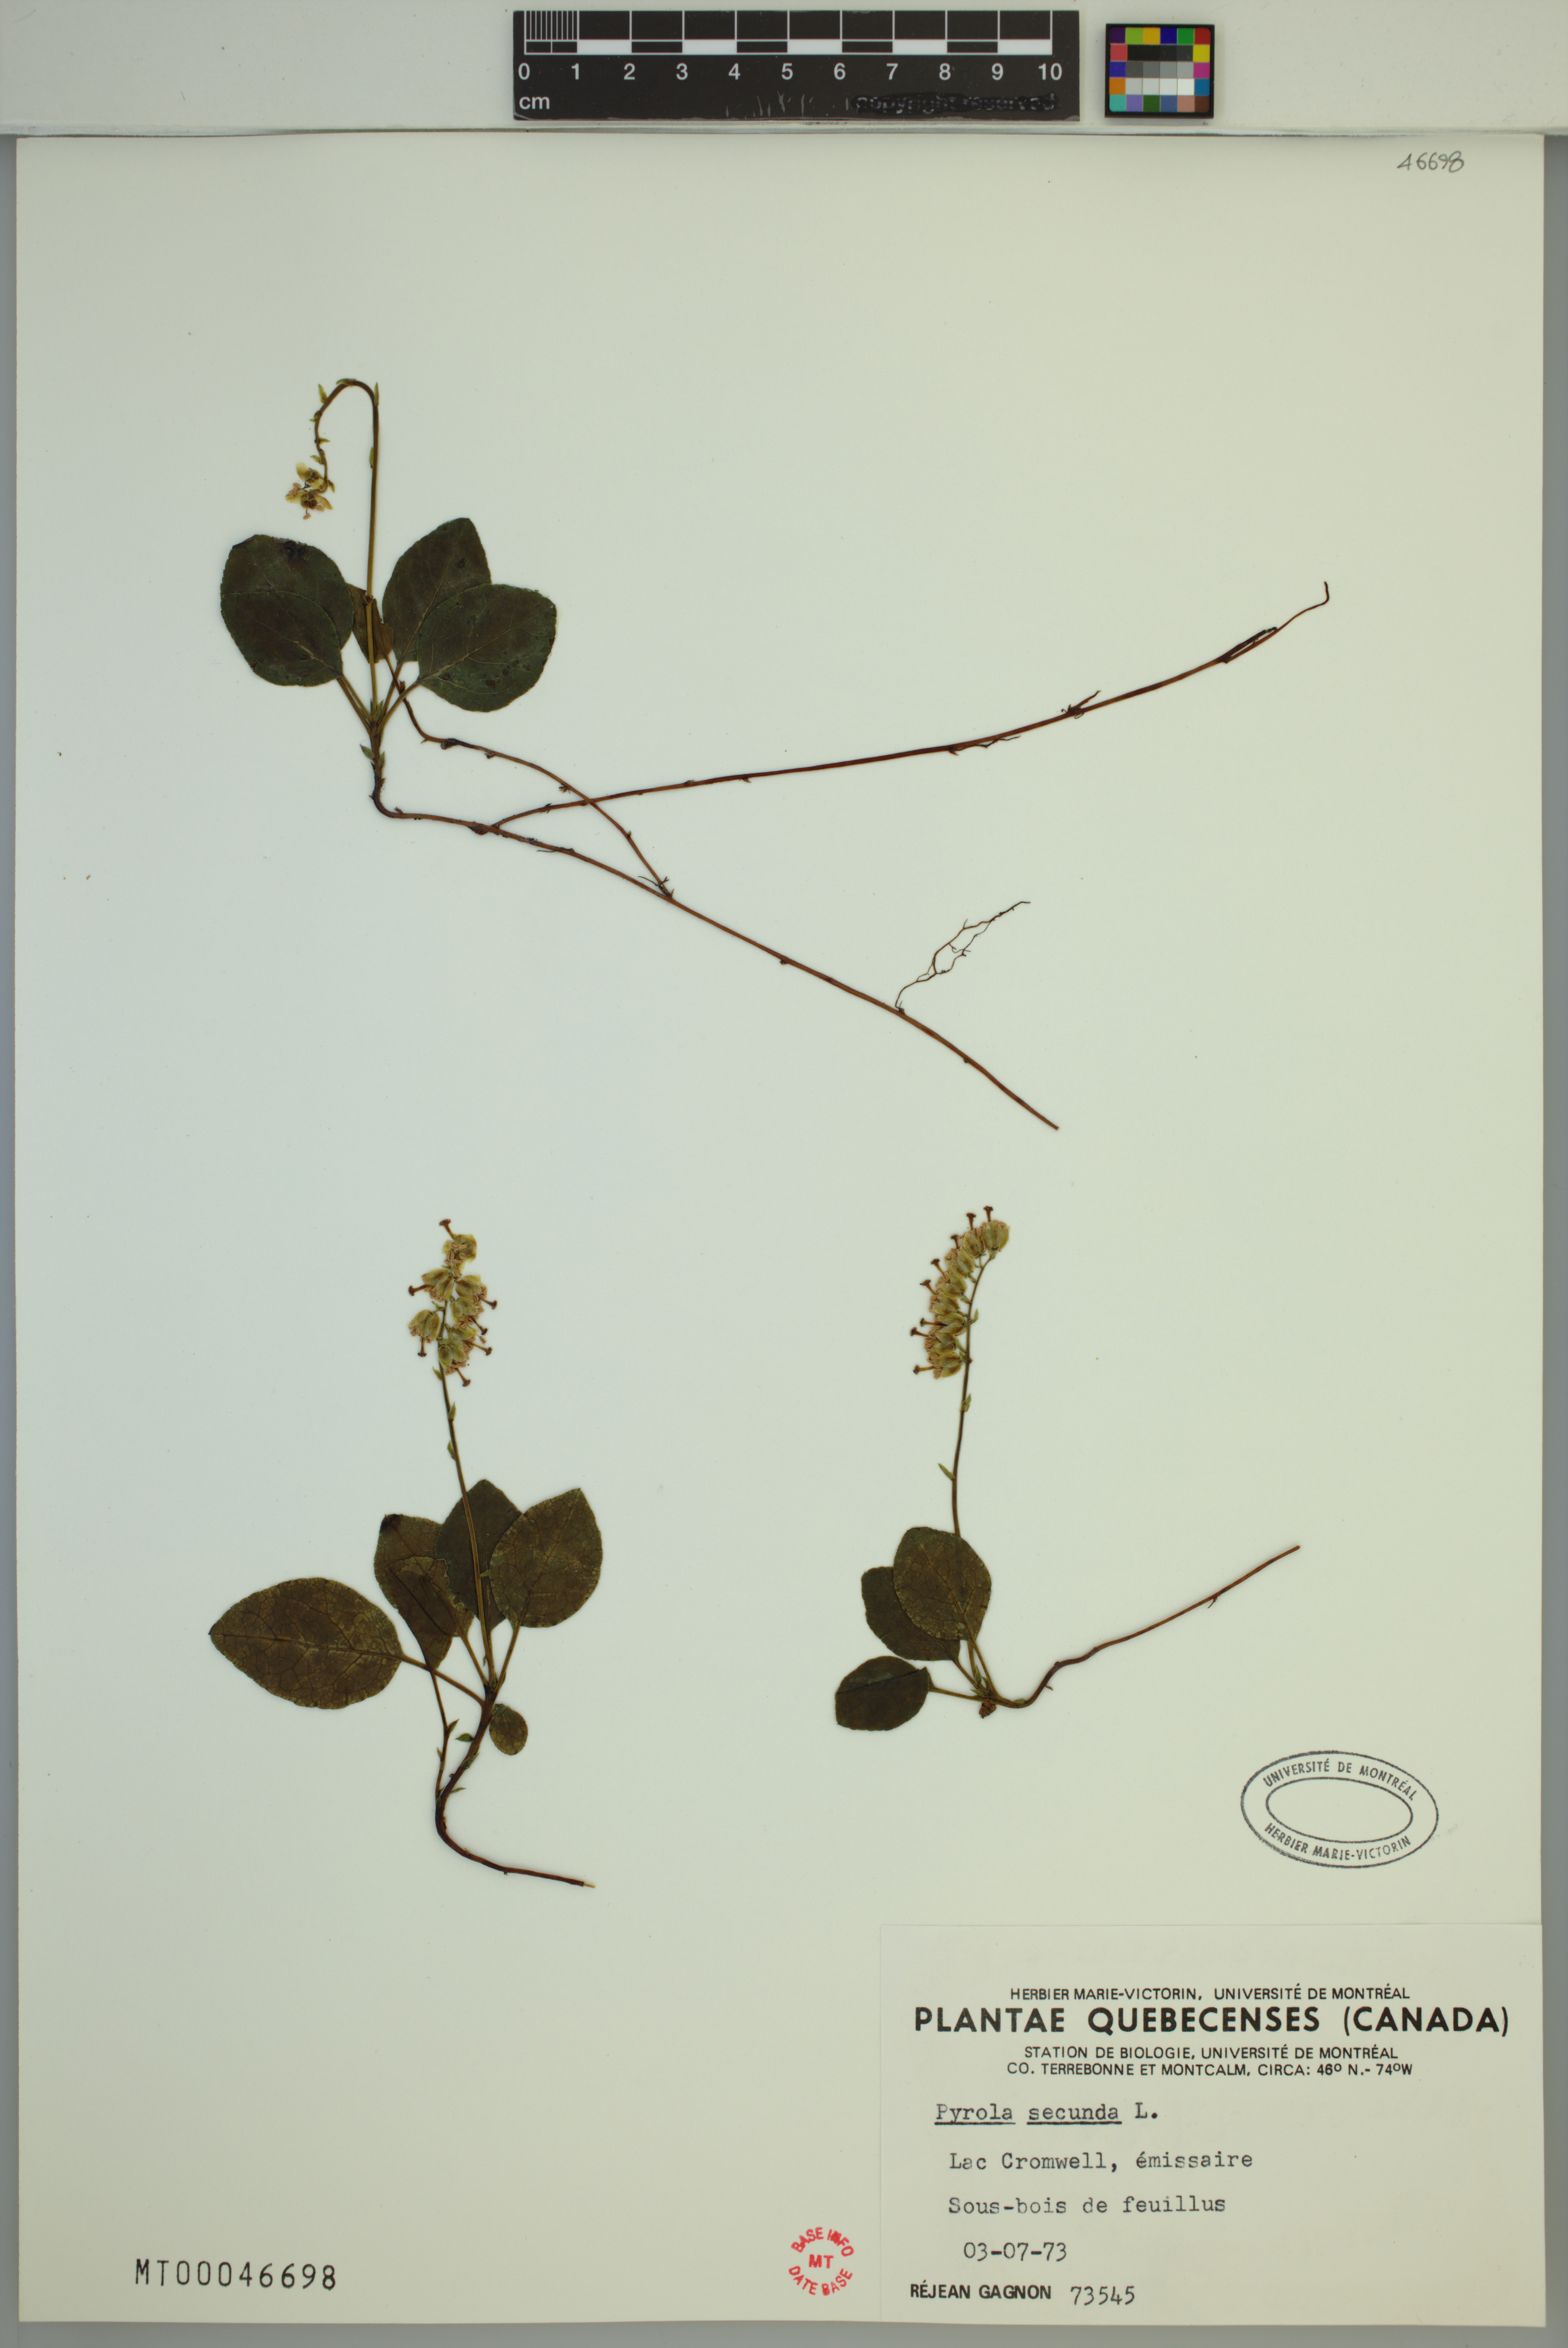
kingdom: Plantae
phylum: Tracheophyta
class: Magnoliopsida
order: Ericales
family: Ericaceae
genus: Orthilia
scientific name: Orthilia secunda
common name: One-sided orthilia
